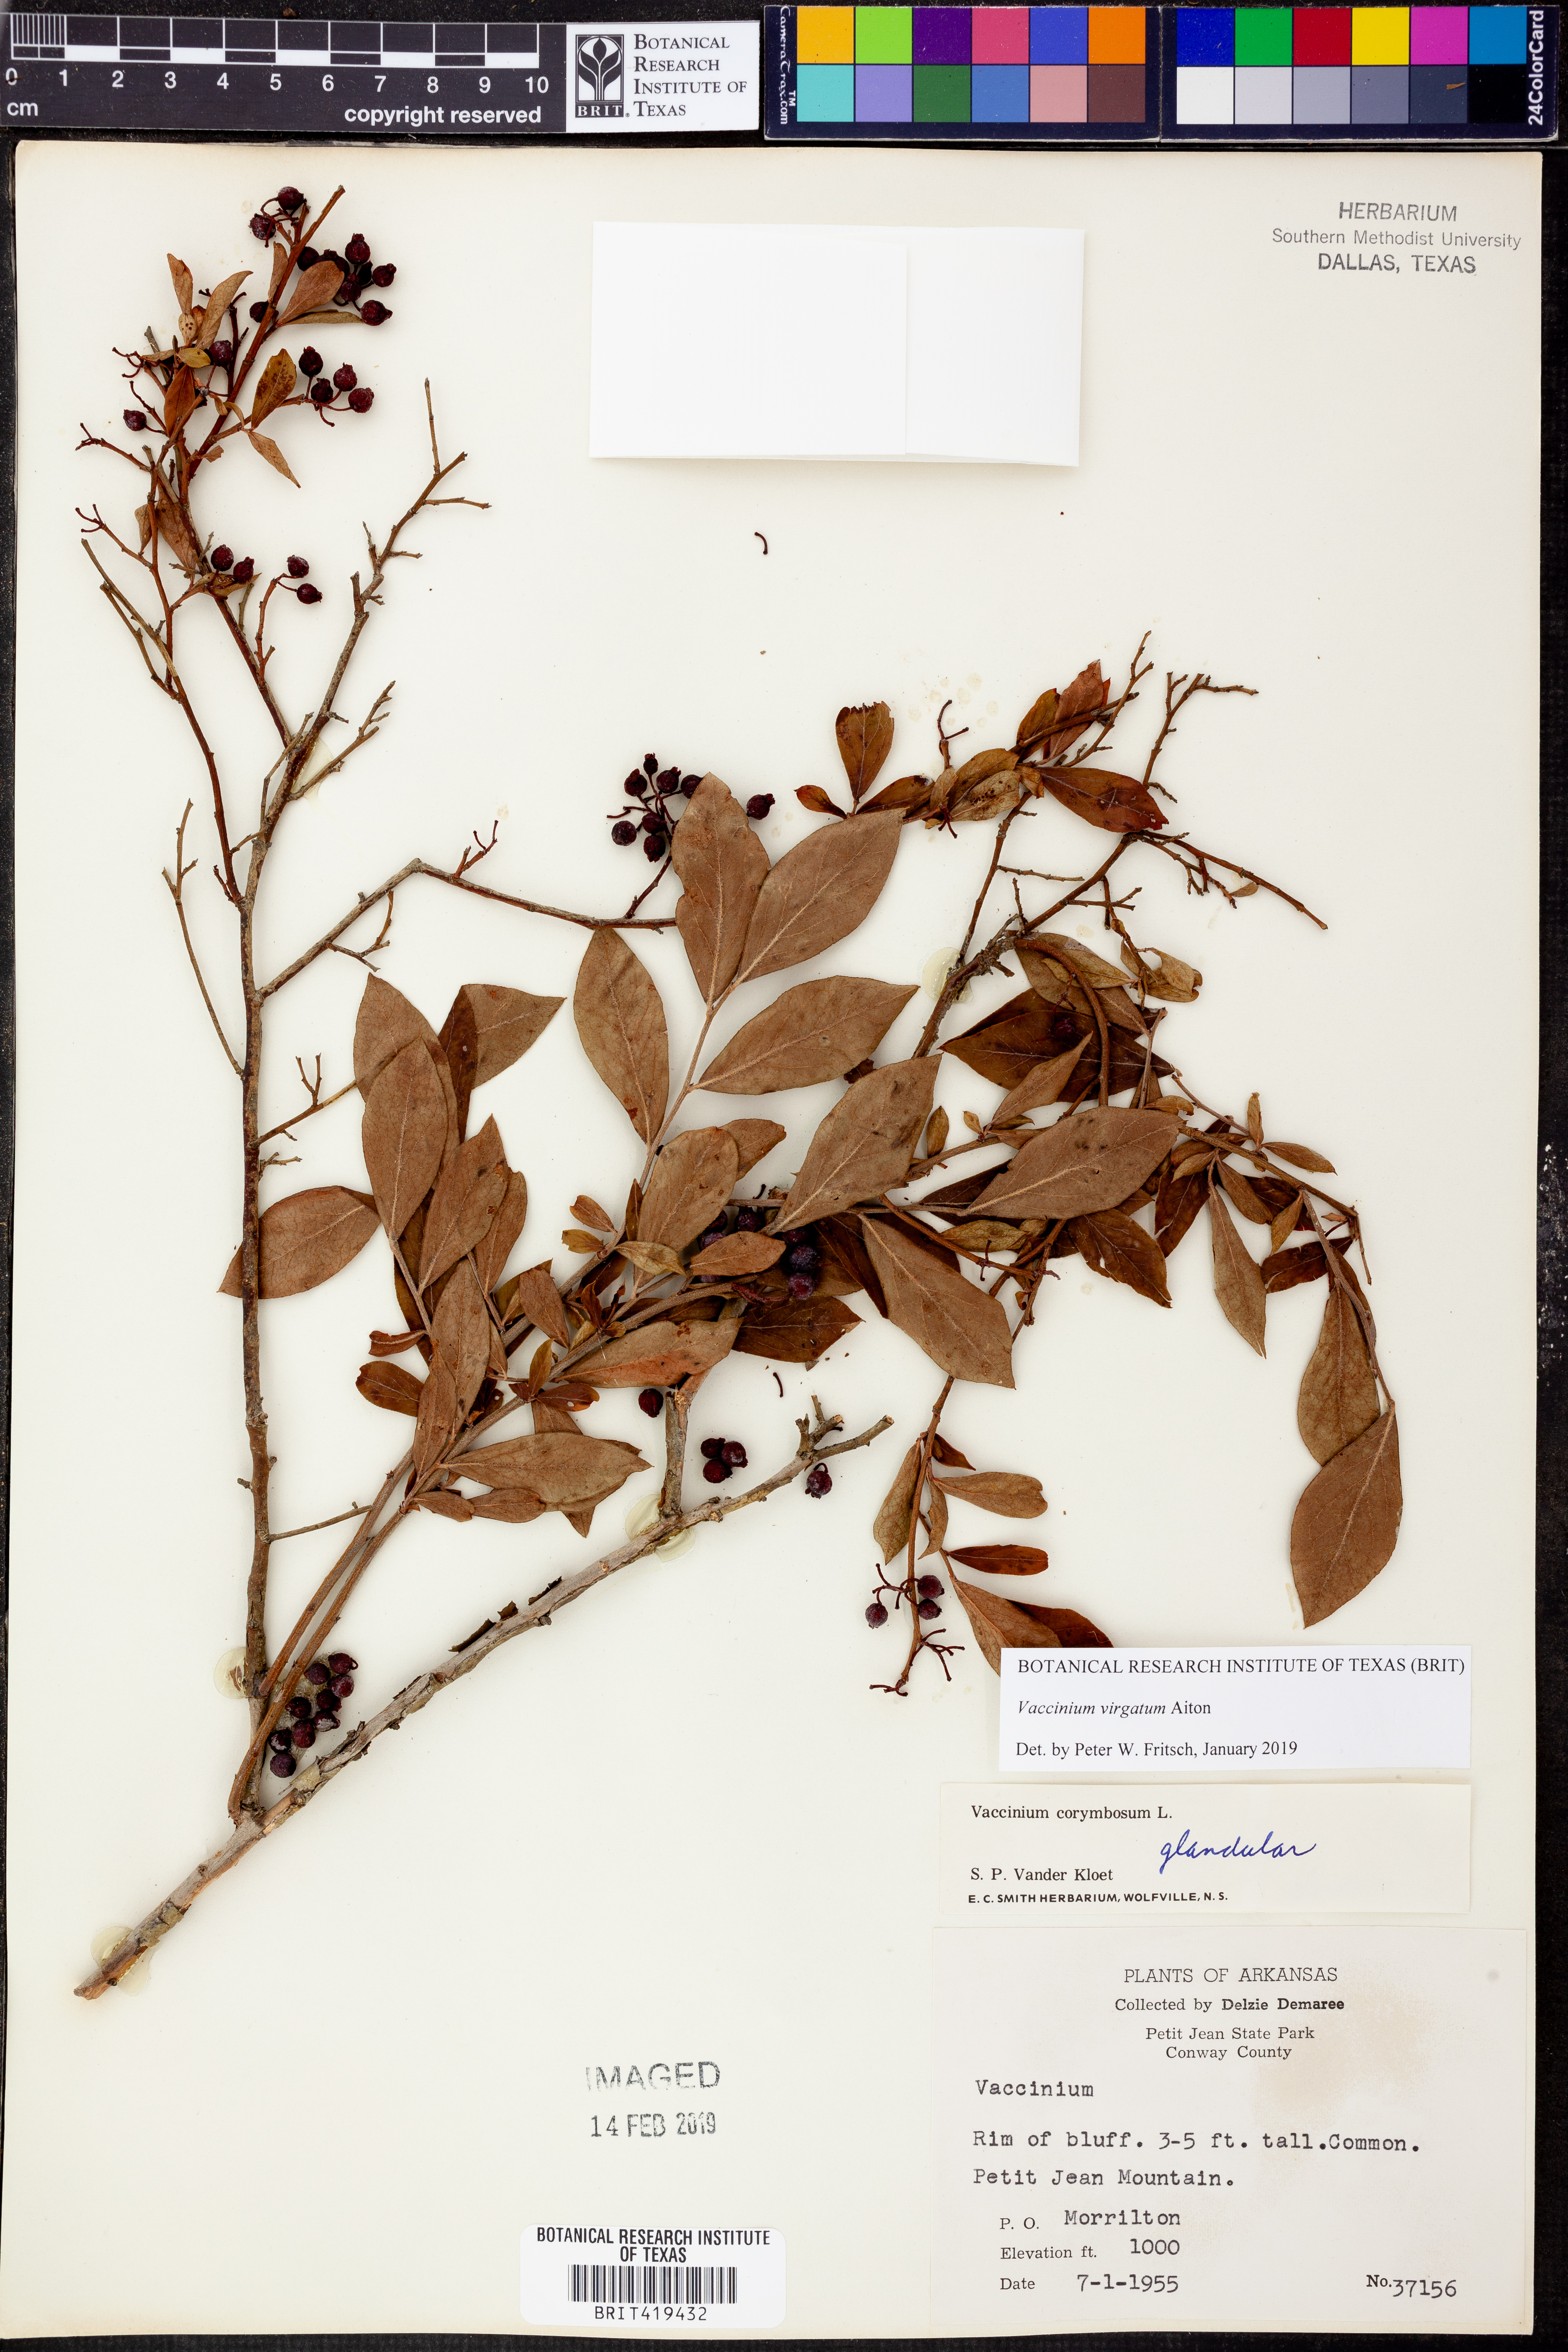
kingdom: Plantae
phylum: Tracheophyta
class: Magnoliopsida
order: Ericales
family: Ericaceae
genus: Vaccinium
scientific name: Vaccinium corymbosum
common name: Blueberry
